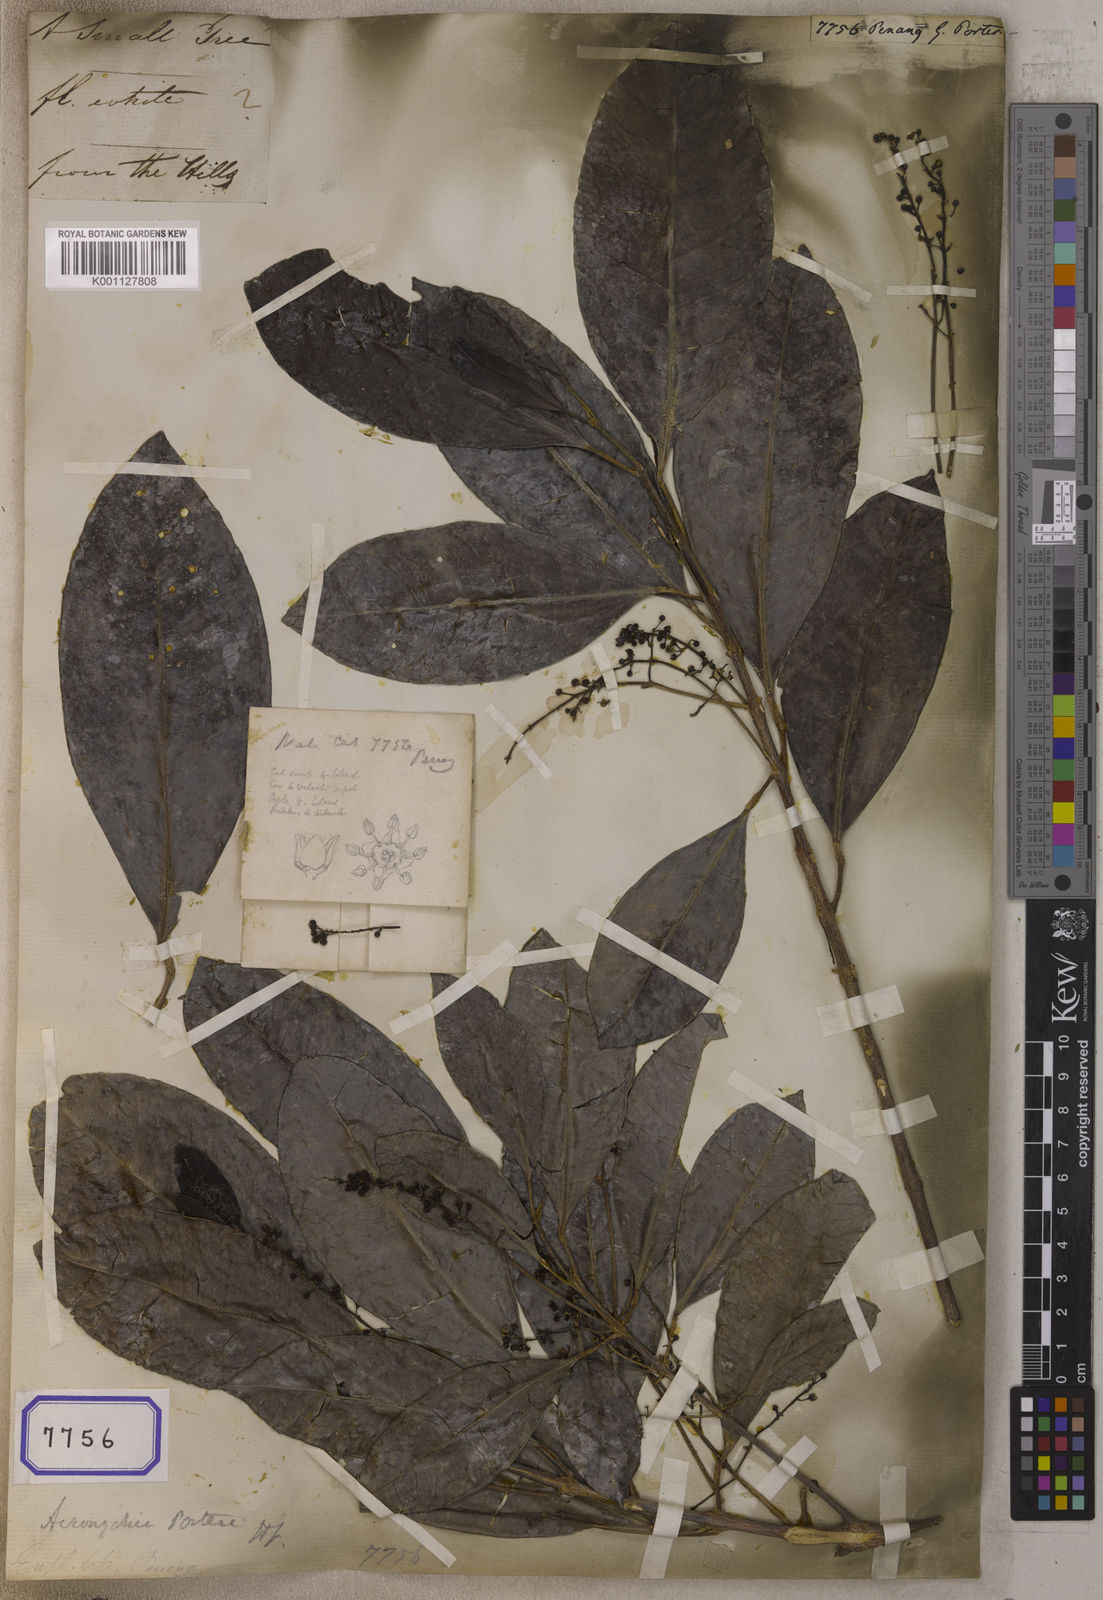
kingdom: Plantae
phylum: Tracheophyta
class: Magnoliopsida
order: Malpighiales
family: Euphorbiaceae
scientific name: Euphorbiaceae
